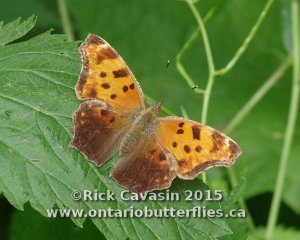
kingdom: Animalia
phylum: Arthropoda
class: Insecta
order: Lepidoptera
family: Nymphalidae
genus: Polygonia
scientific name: Polygonia comma
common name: Eastern Comma
